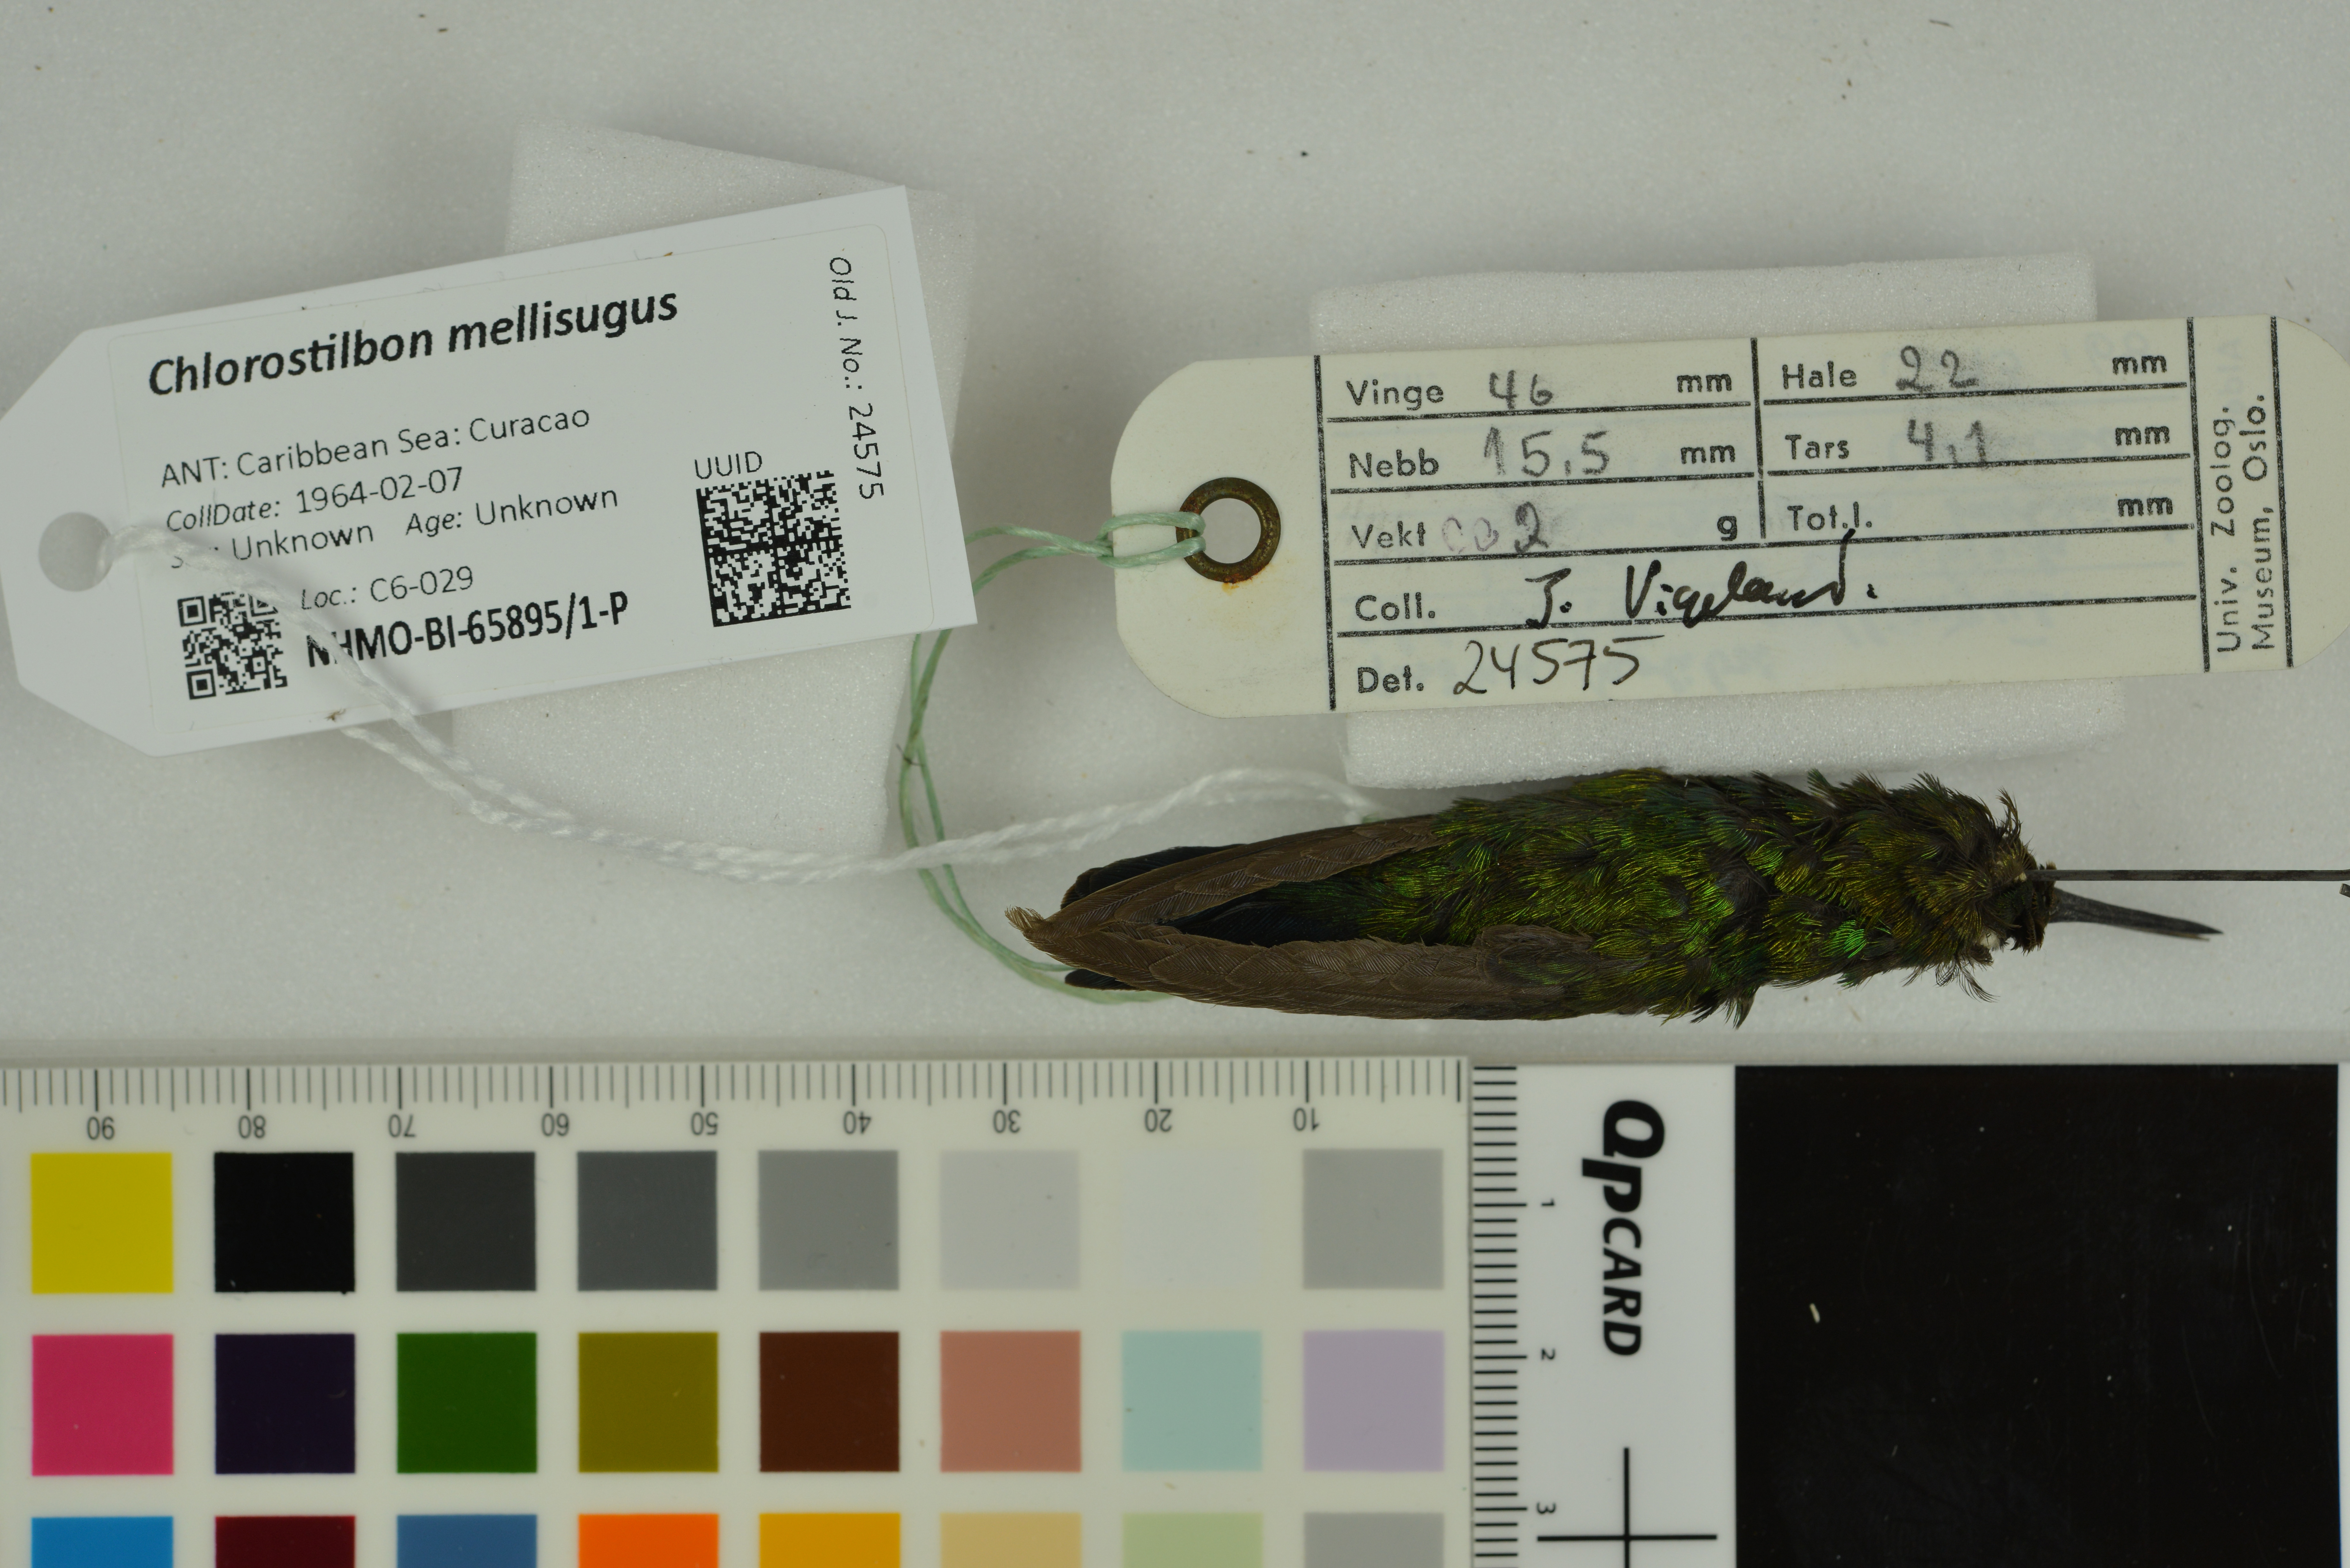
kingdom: Animalia
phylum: Chordata
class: Aves
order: Apodiformes
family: Trochilidae
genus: Chlorostilbon
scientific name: Chlorostilbon mellisugus
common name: Blue-tailed emerald
